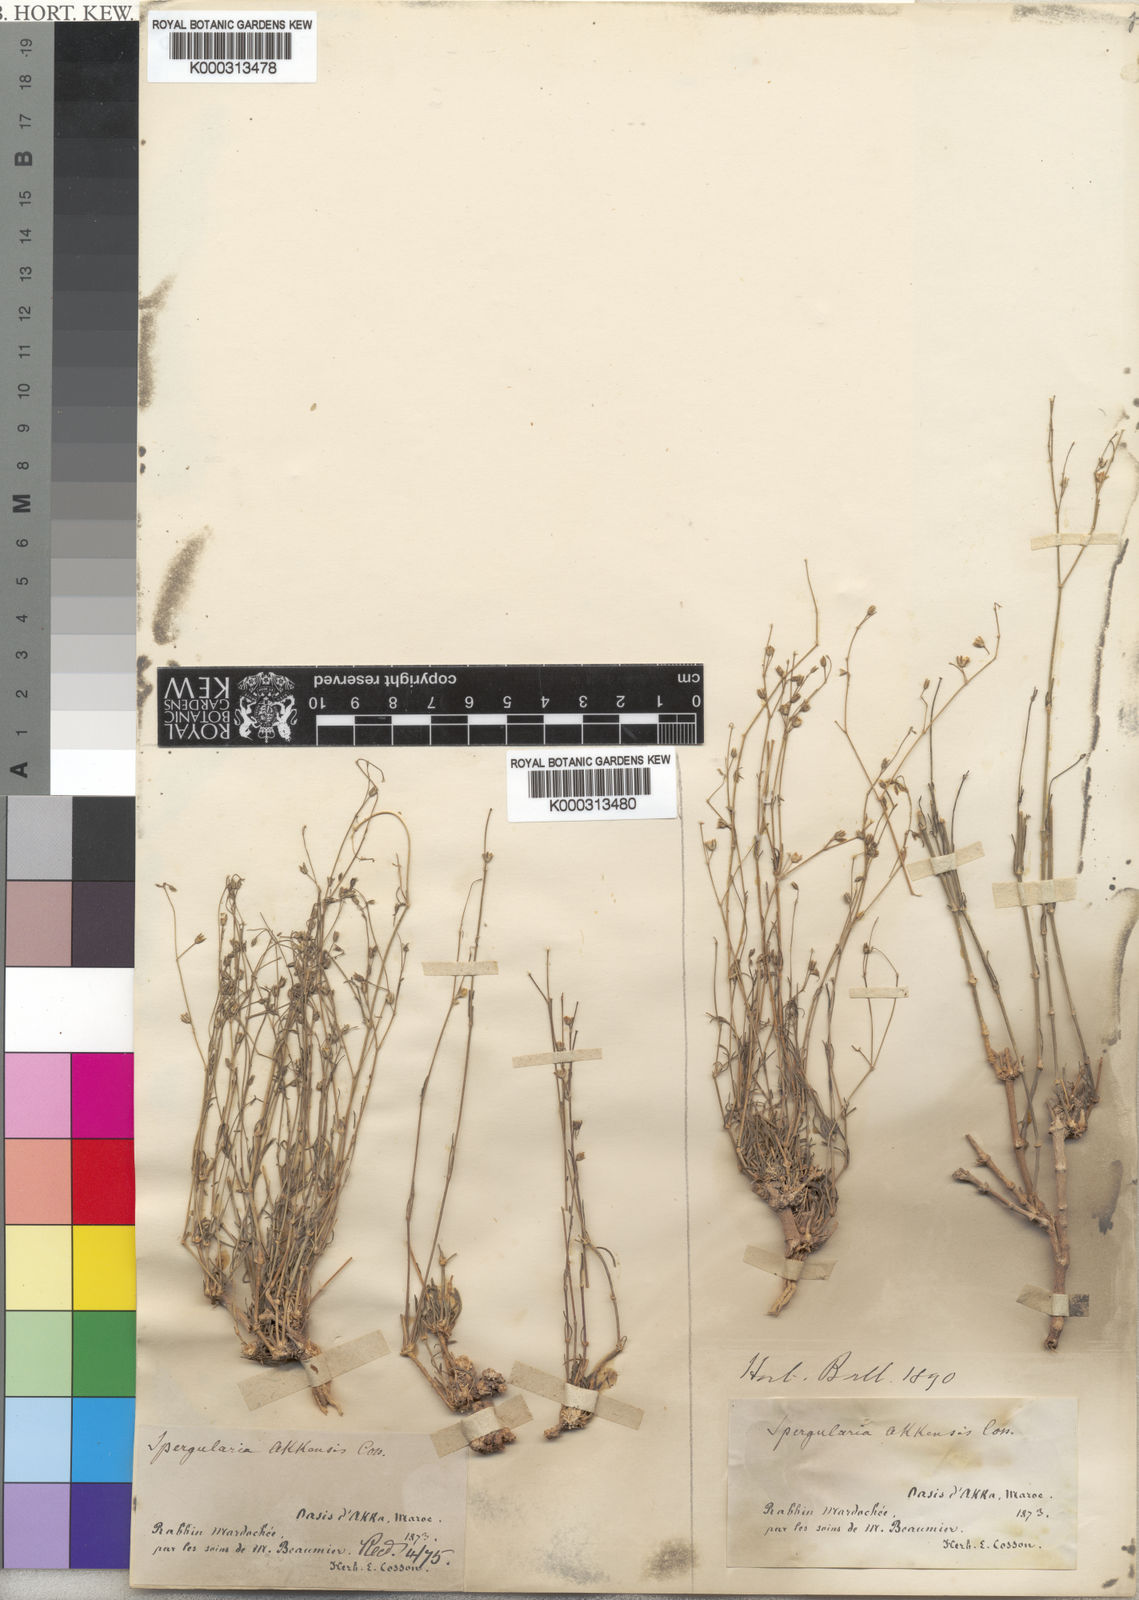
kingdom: Plantae
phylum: Tracheophyta
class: Magnoliopsida
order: Caryophyllales
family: Caryophyllaceae
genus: Polycarpaea
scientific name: Polycarpaea akkensis
